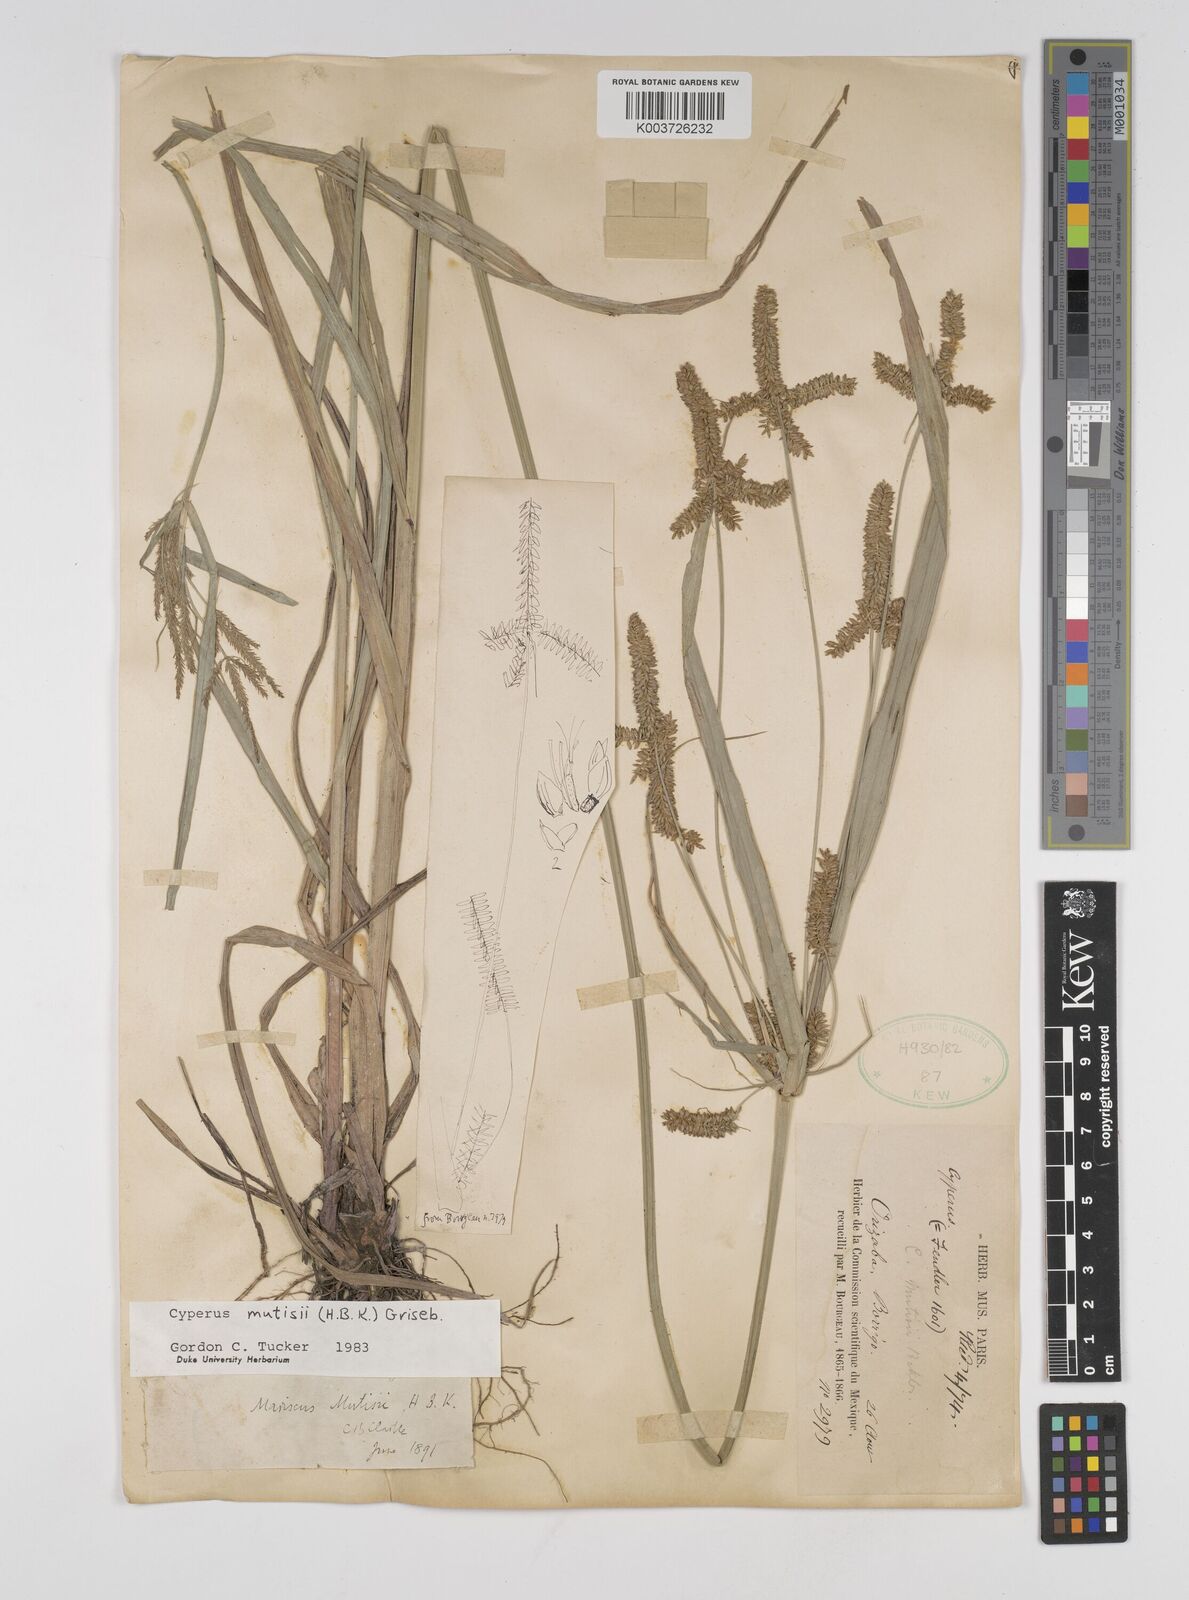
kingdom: Plantae
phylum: Tracheophyta
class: Liliopsida
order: Poales
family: Cyperaceae
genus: Cyperus
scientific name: Cyperus mutisii
